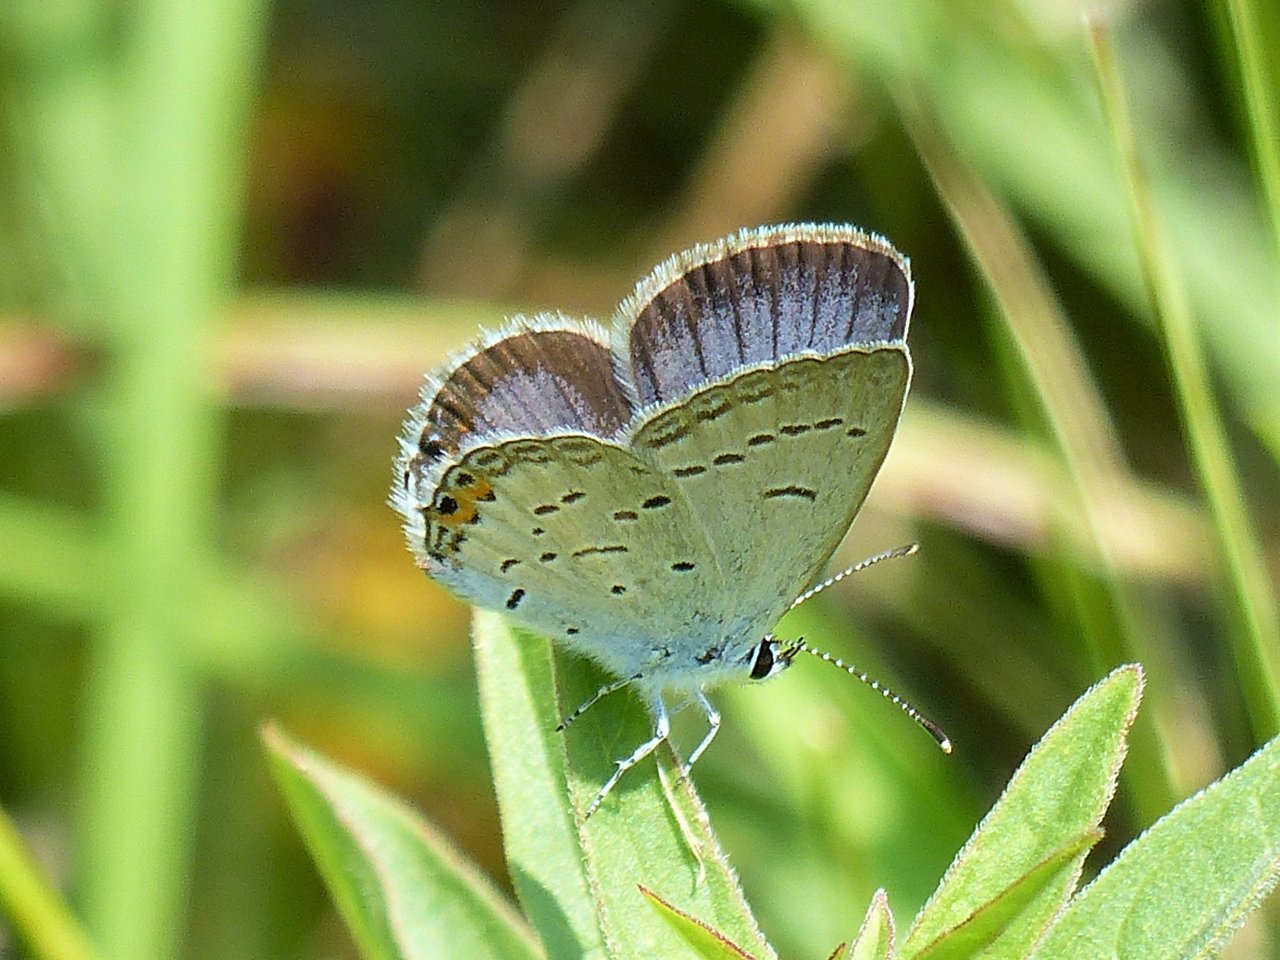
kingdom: Animalia
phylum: Arthropoda
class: Insecta
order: Lepidoptera
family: Lycaenidae
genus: Elkalyce
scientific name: Elkalyce comyntas
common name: Eastern Tailed-Blue
